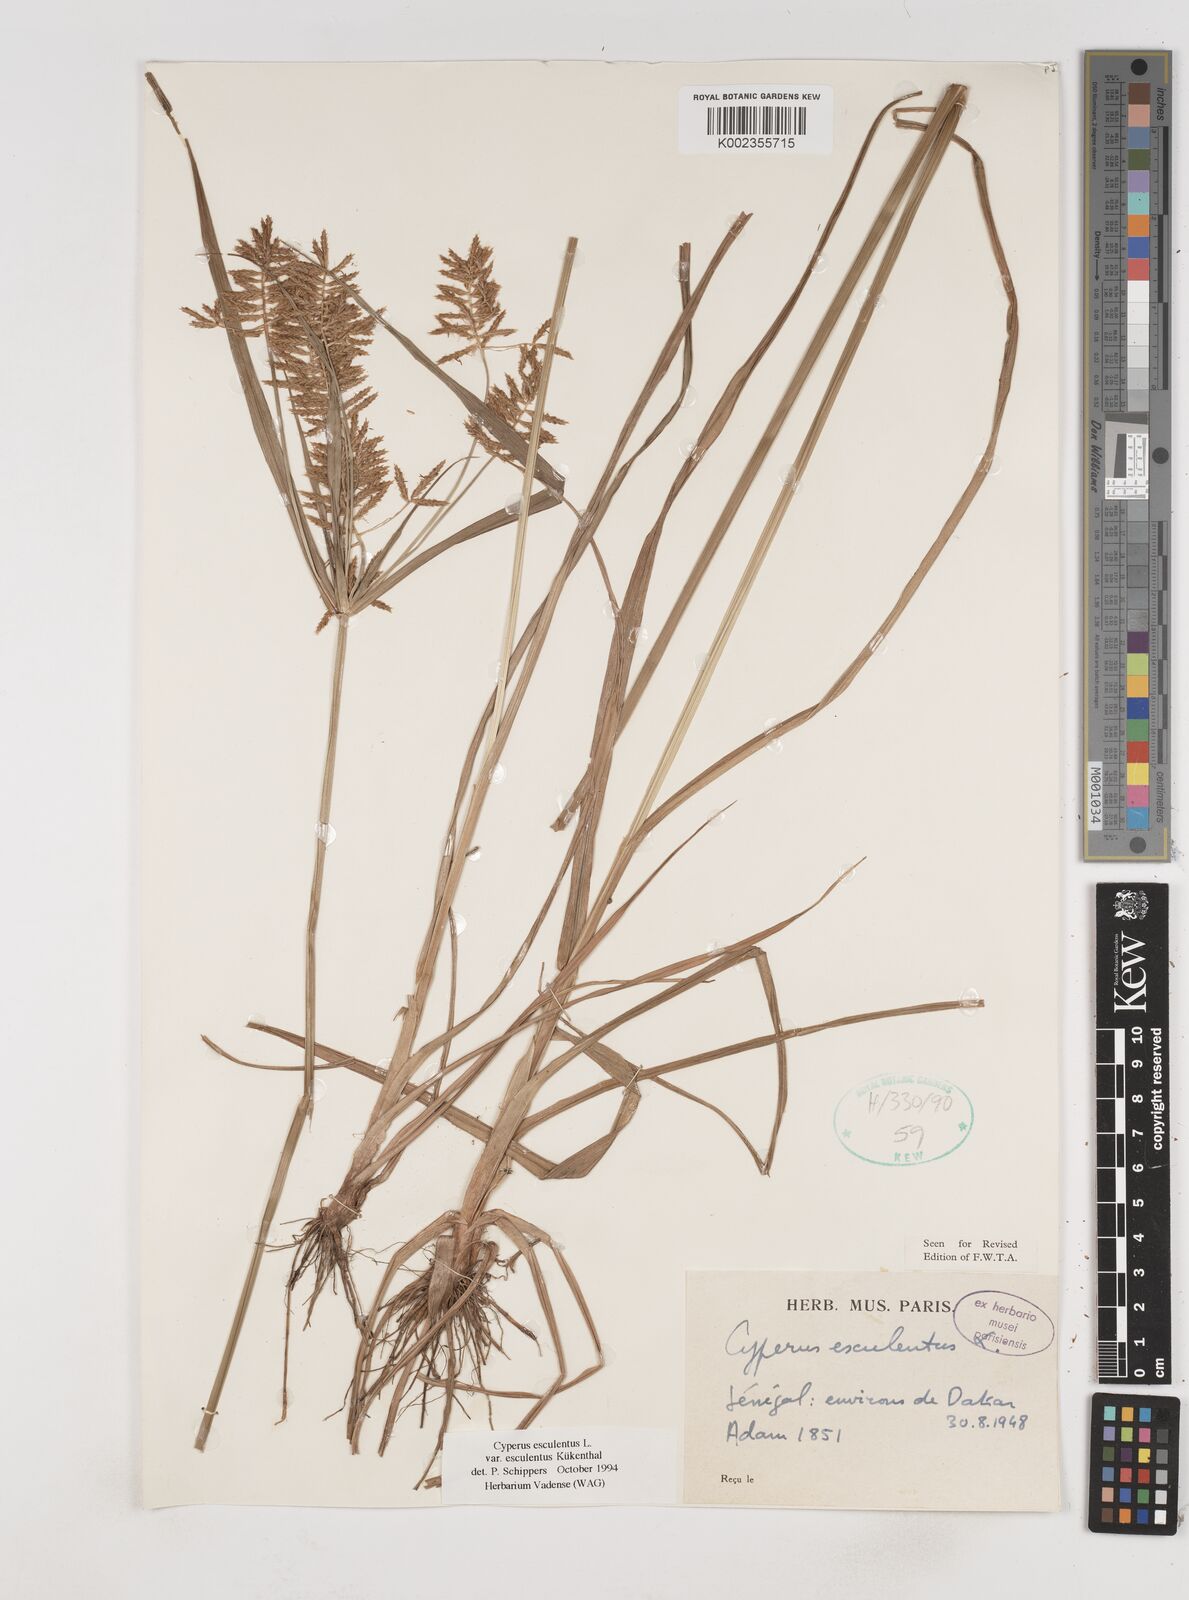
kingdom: Plantae
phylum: Tracheophyta
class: Liliopsida
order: Poales
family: Cyperaceae
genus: Cyperus
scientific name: Cyperus esculentus
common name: Yellow nutsedge
